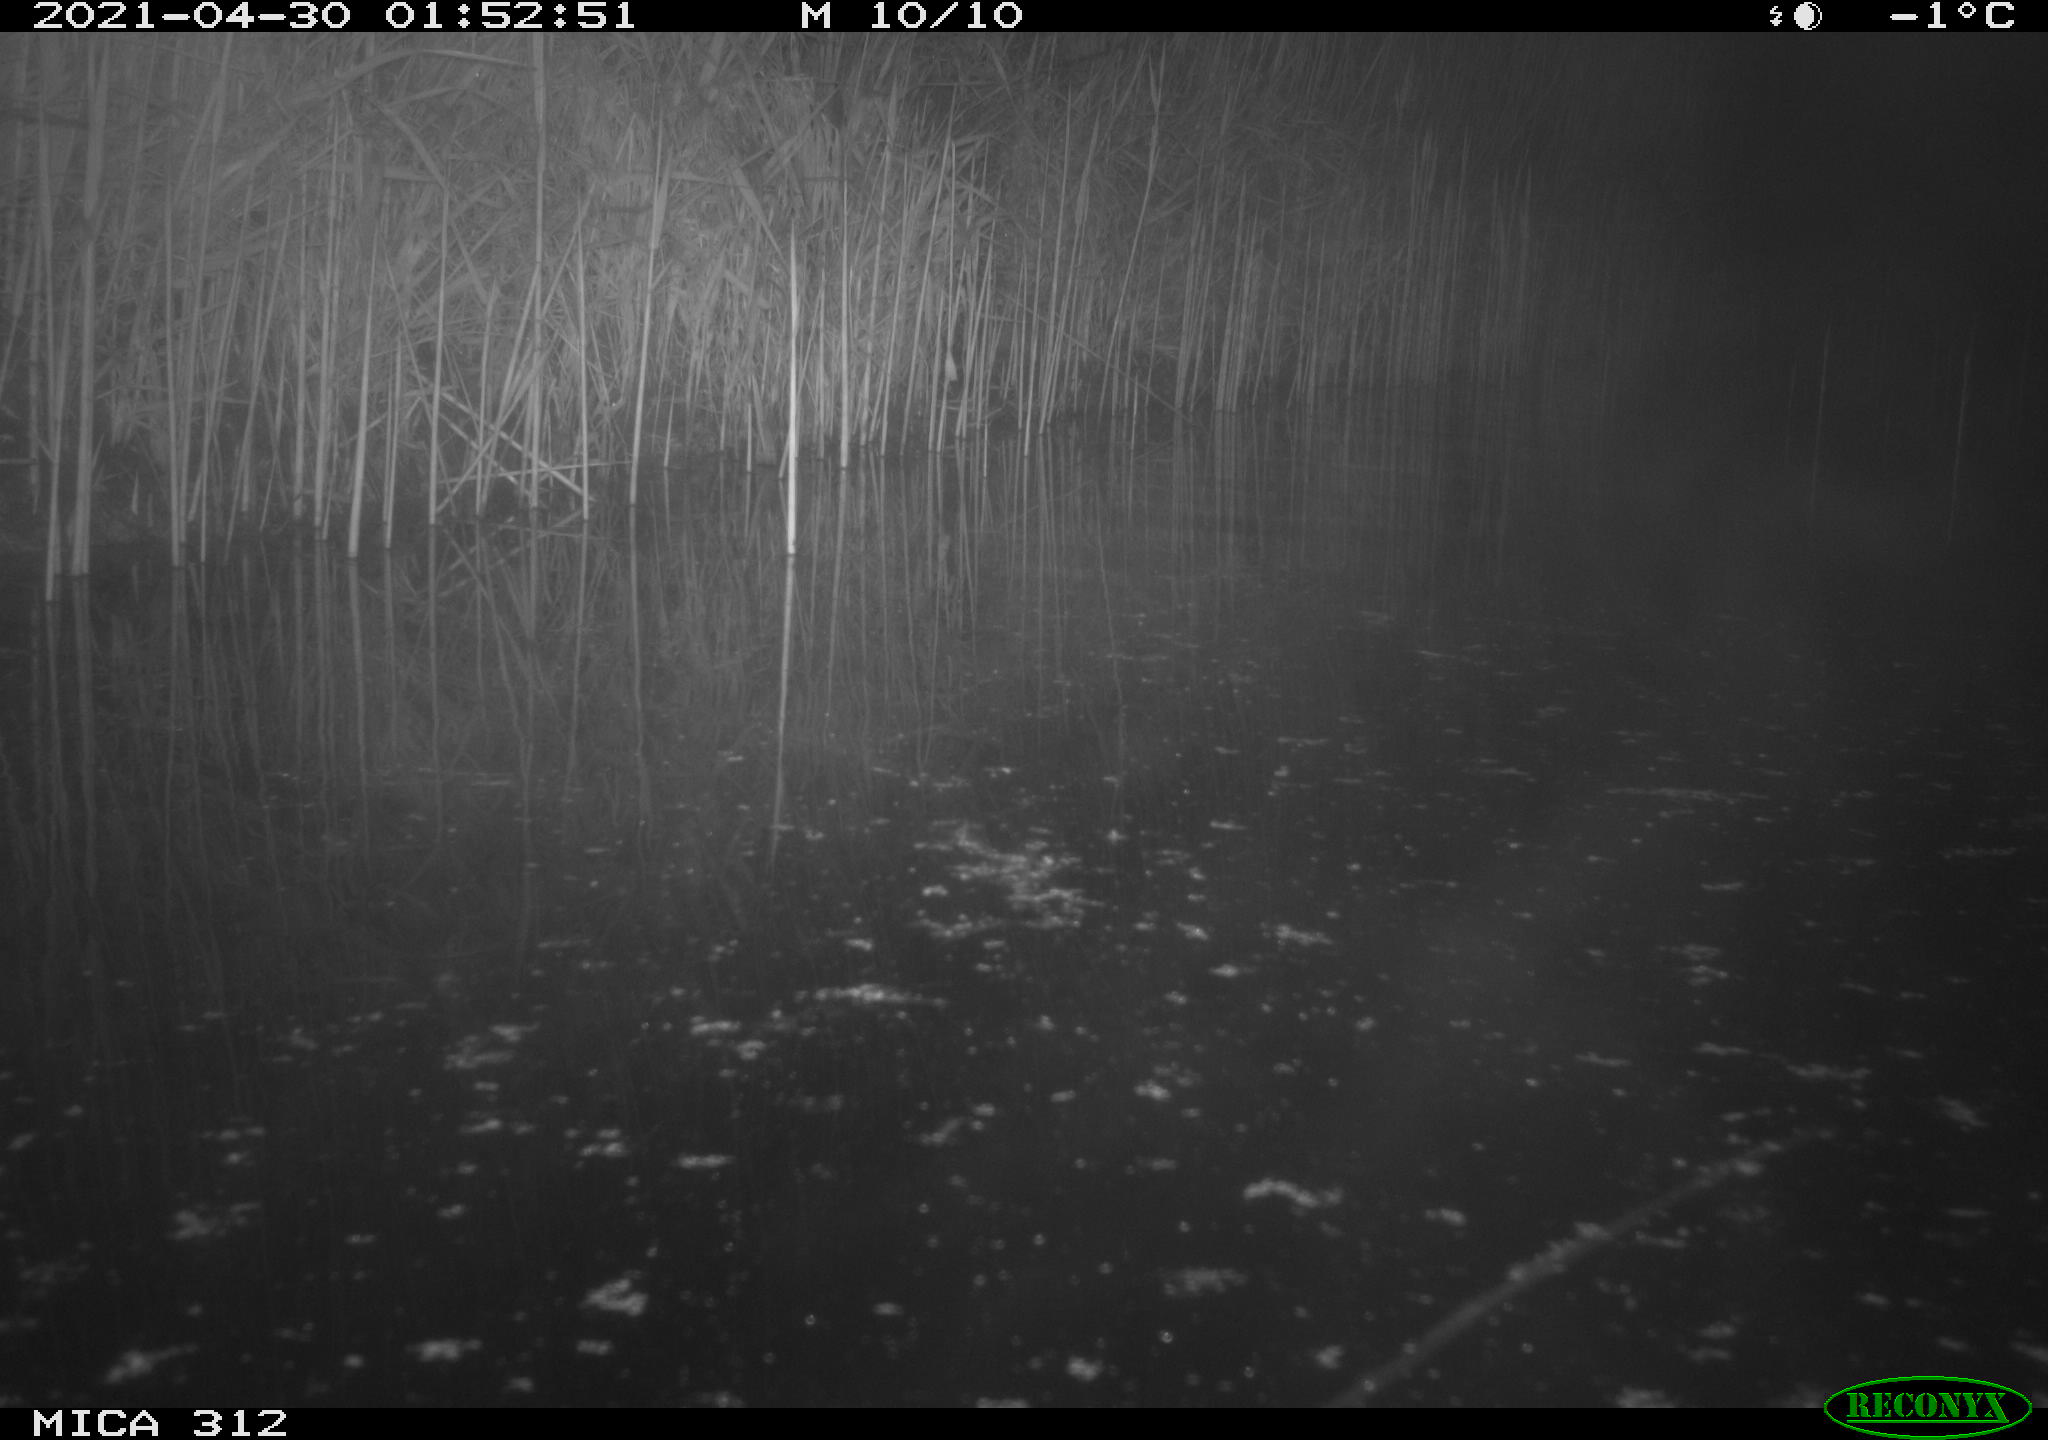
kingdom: Animalia
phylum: Chordata
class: Aves
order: Gruiformes
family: Rallidae
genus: Fulica
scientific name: Fulica atra
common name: Eurasian coot
